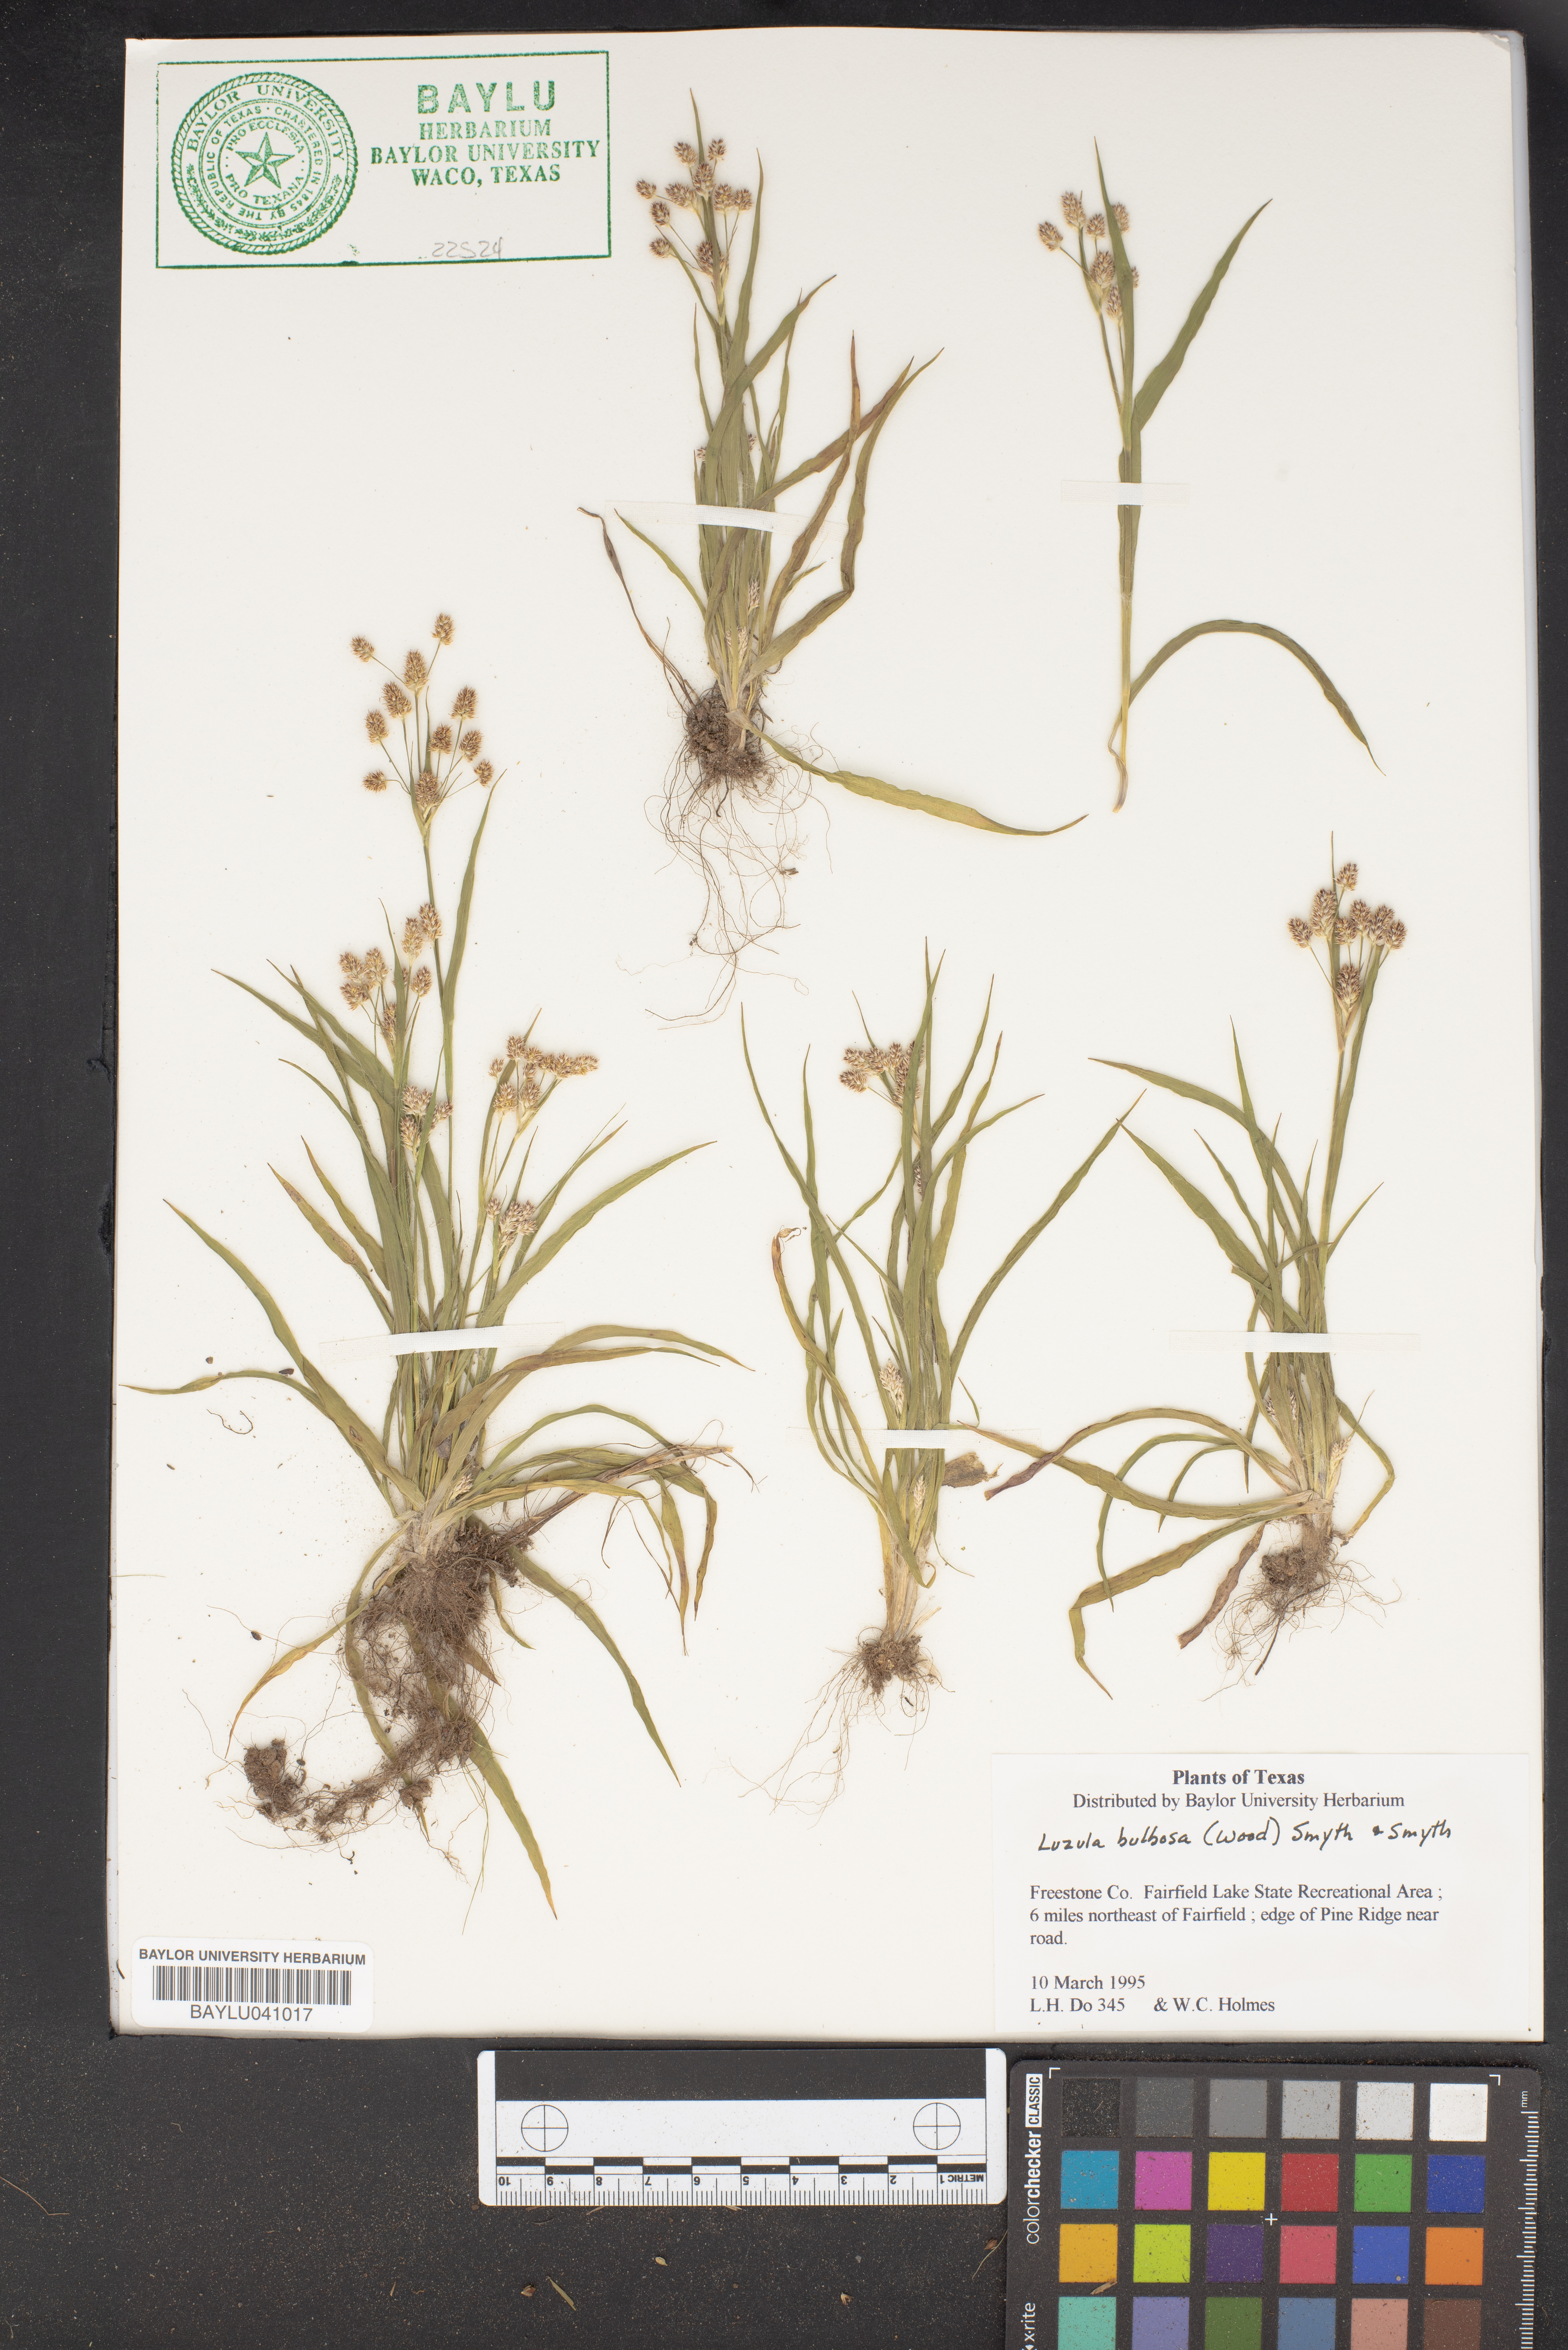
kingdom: Plantae
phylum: Tracheophyta
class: Liliopsida
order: Poales
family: Juncaceae
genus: Luzula
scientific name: Luzula bulbosa
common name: Bulbous woodrush
